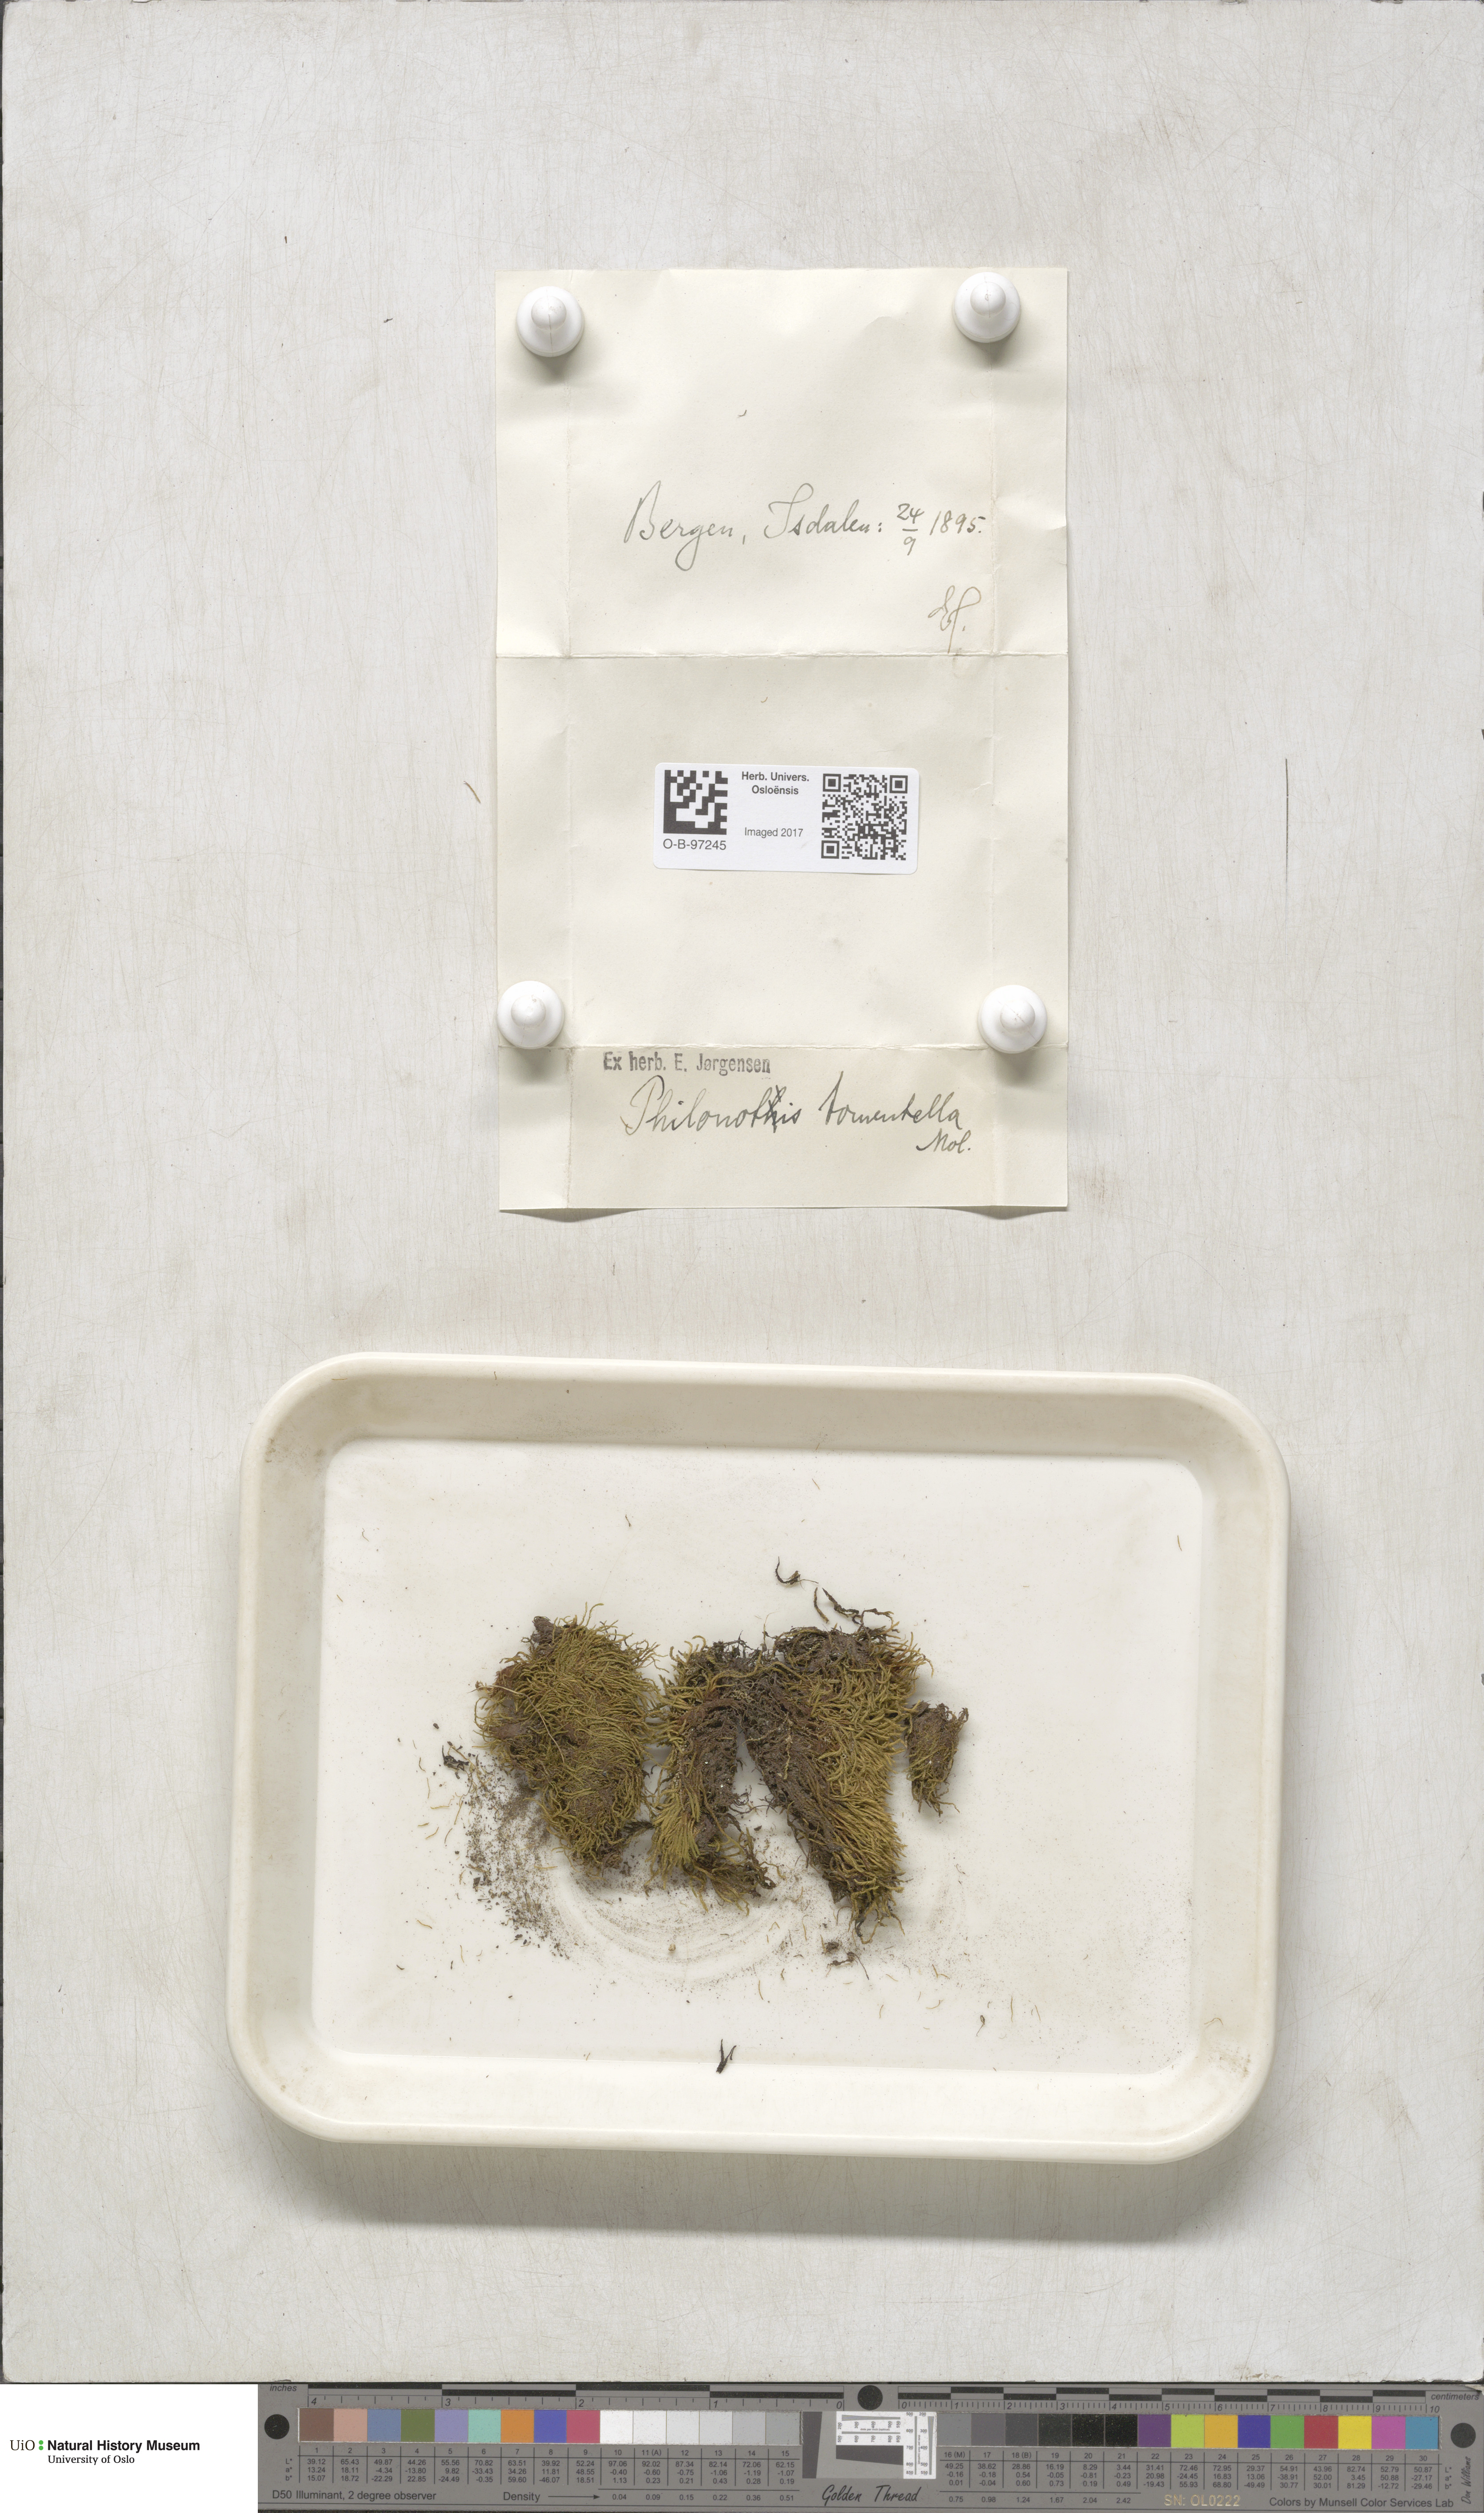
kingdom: Plantae
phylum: Bryophyta
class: Bryopsida
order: Bartramiales
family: Bartramiaceae
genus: Philonotis
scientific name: Philonotis tomentella
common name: Woolly apple moss
